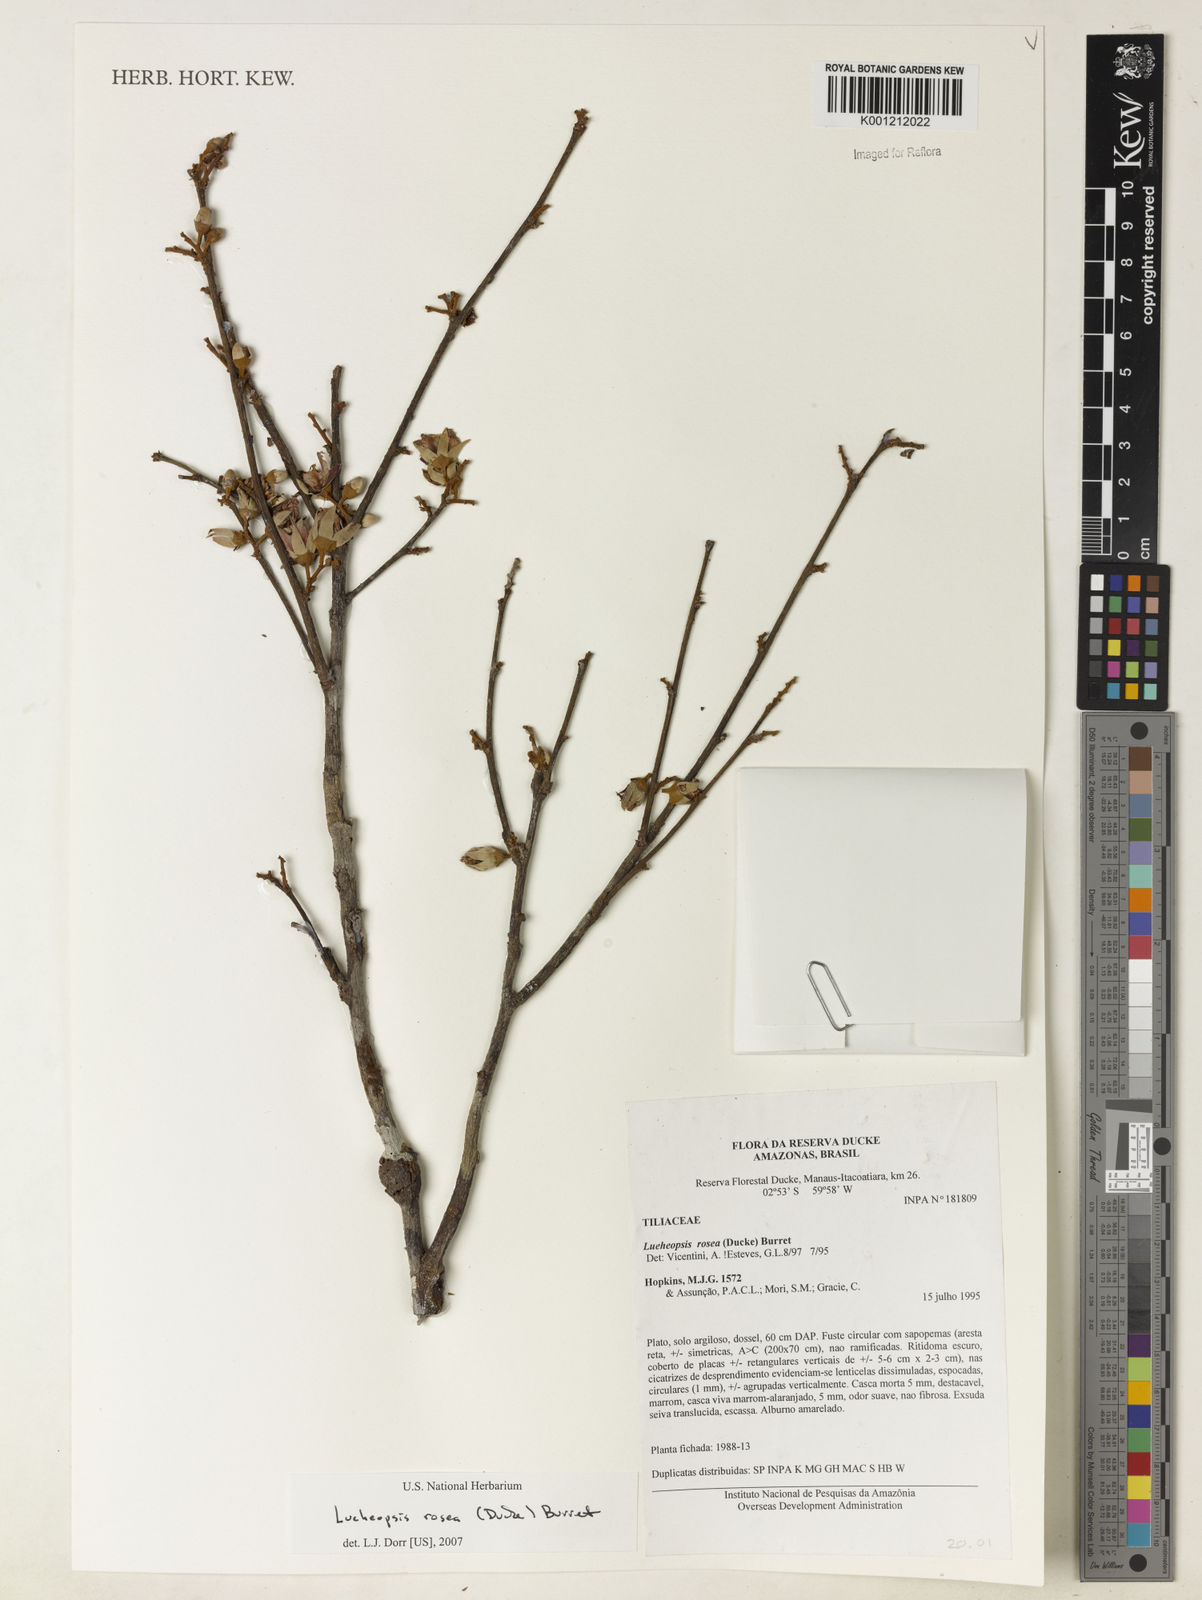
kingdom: Plantae
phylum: Tracheophyta
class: Magnoliopsida
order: Malvales
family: Malvaceae
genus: Lueheopsis
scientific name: Lueheopsis rosea
